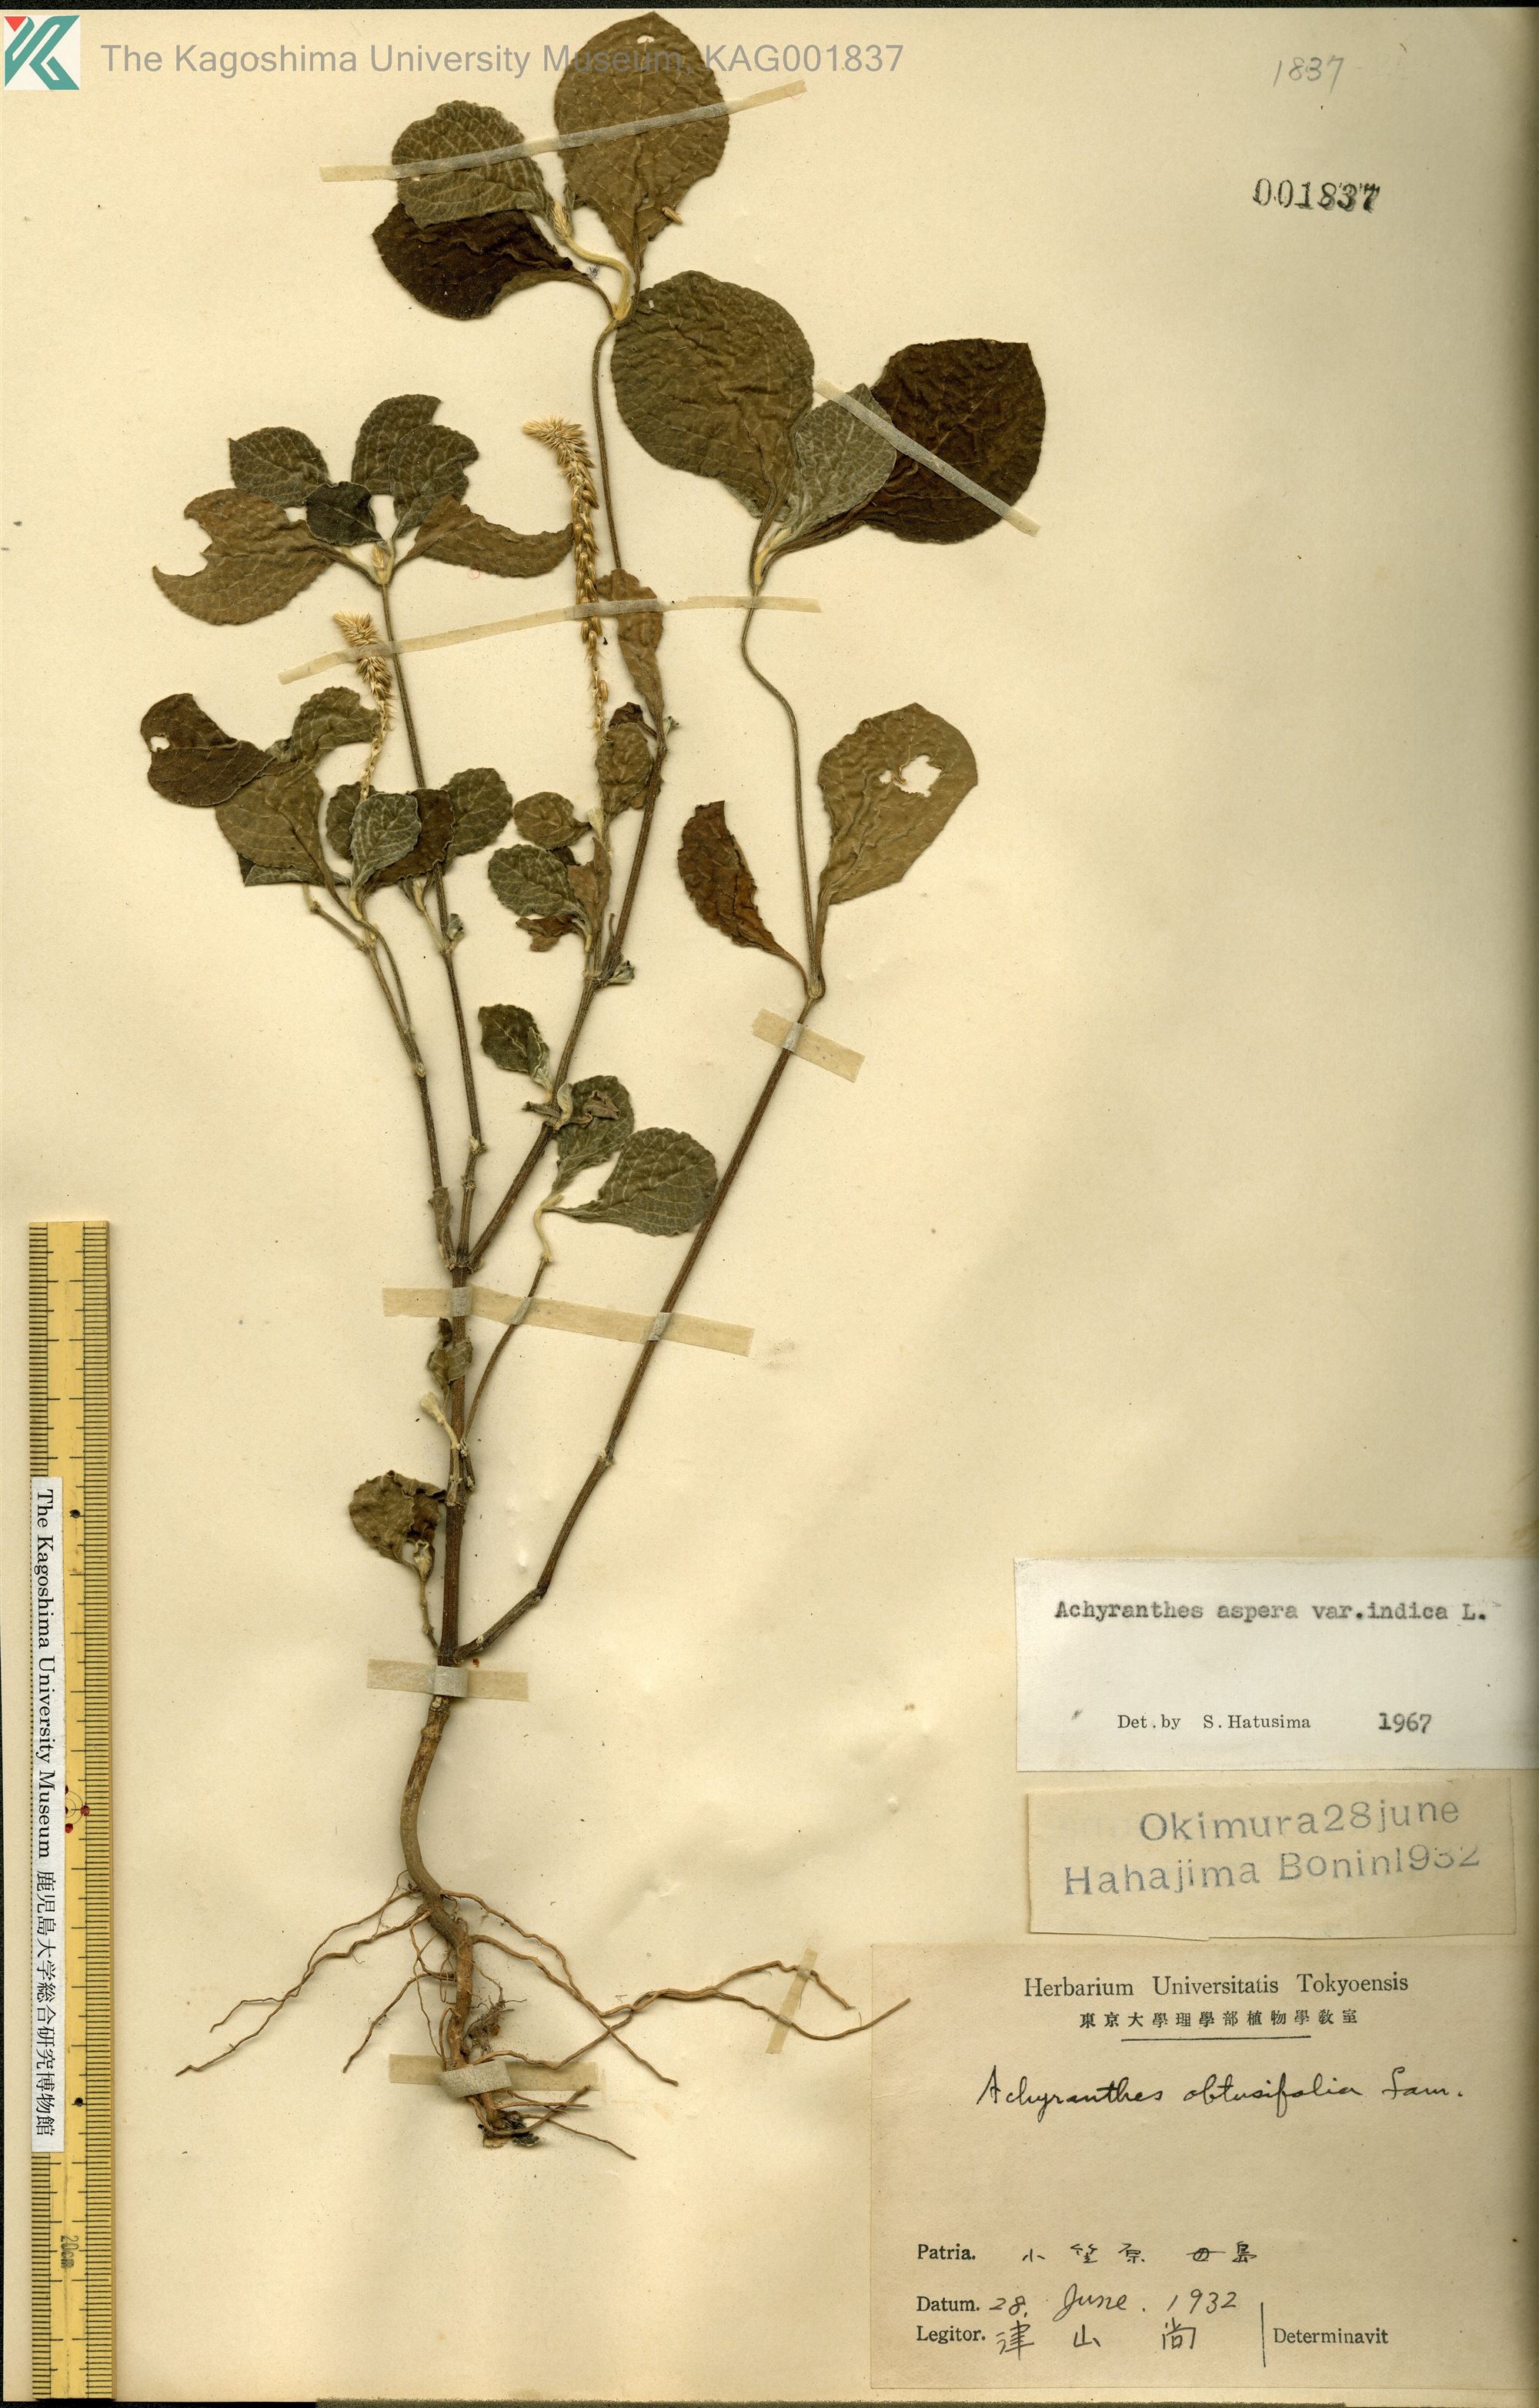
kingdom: Plantae
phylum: Tracheophyta
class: Magnoliopsida
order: Caryophyllales
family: Amaranthaceae
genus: Achyranthes
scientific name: Achyranthes aspera
